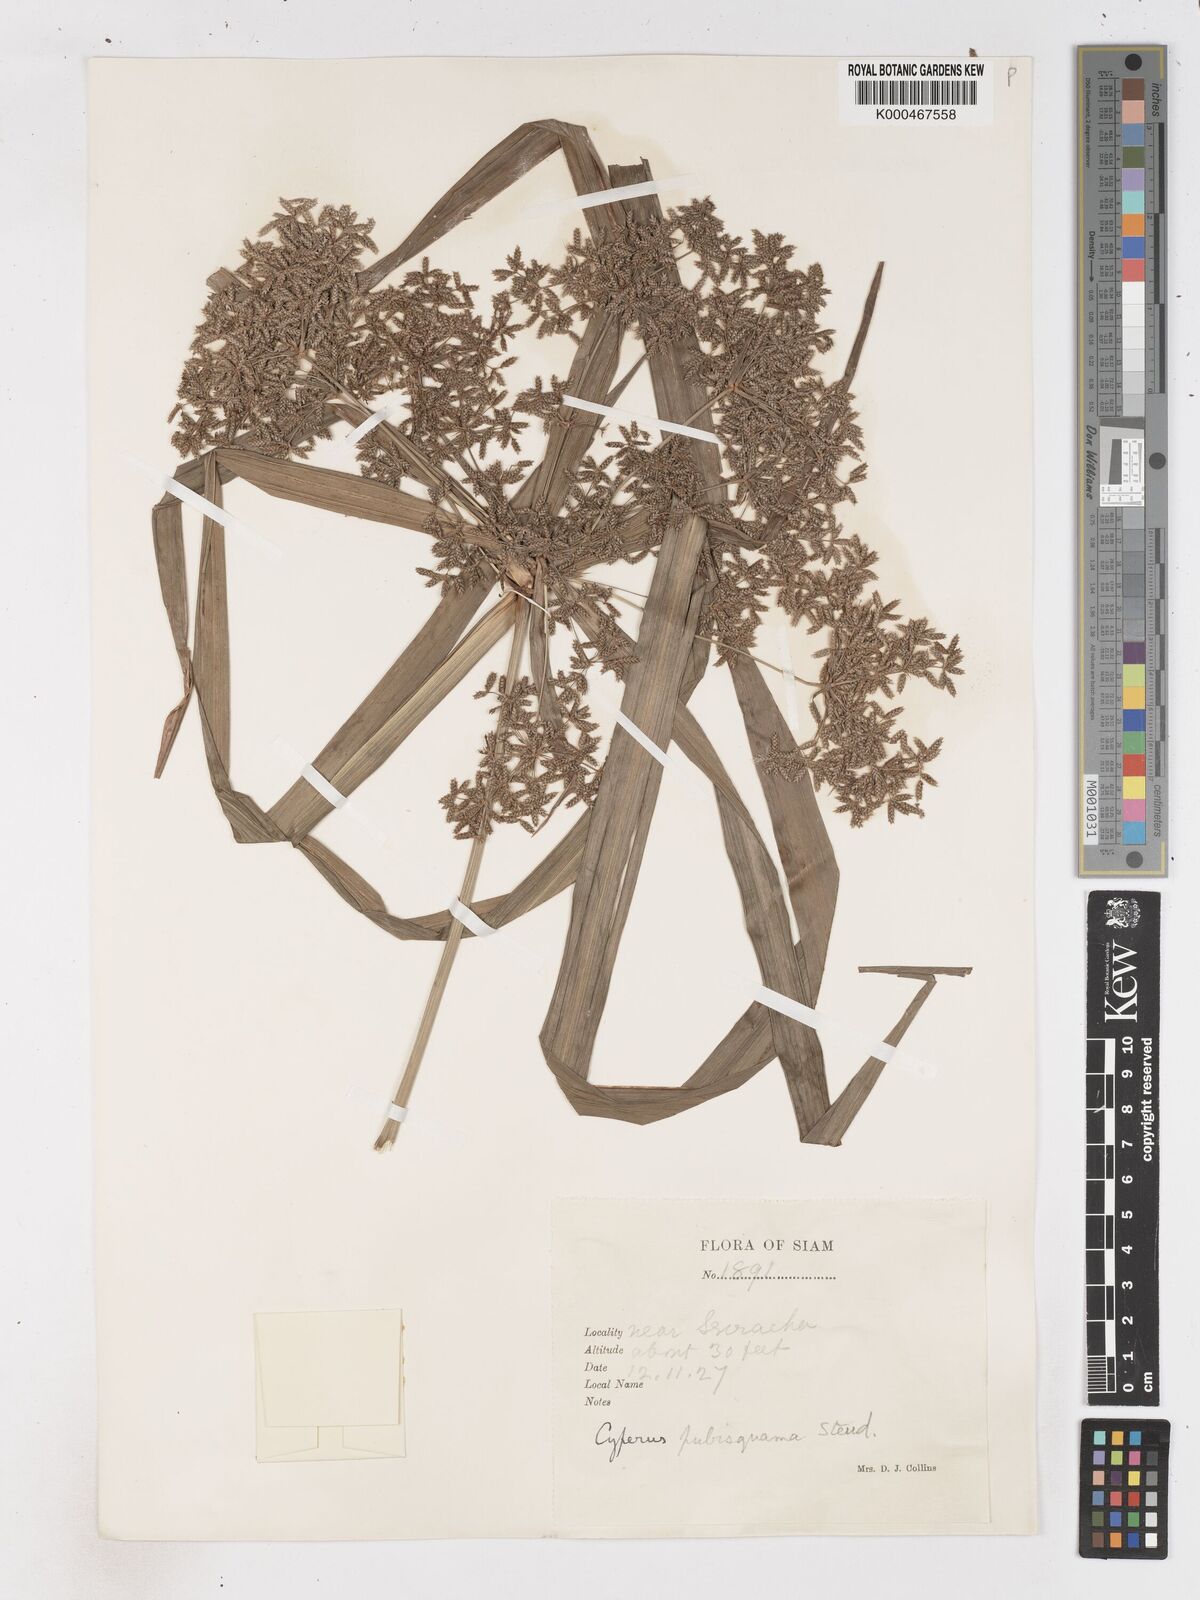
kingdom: Plantae
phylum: Tracheophyta
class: Liliopsida
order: Poales
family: Cyperaceae
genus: Cyperus
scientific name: Cyperus diffusus
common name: Dwarf umbrella grass
